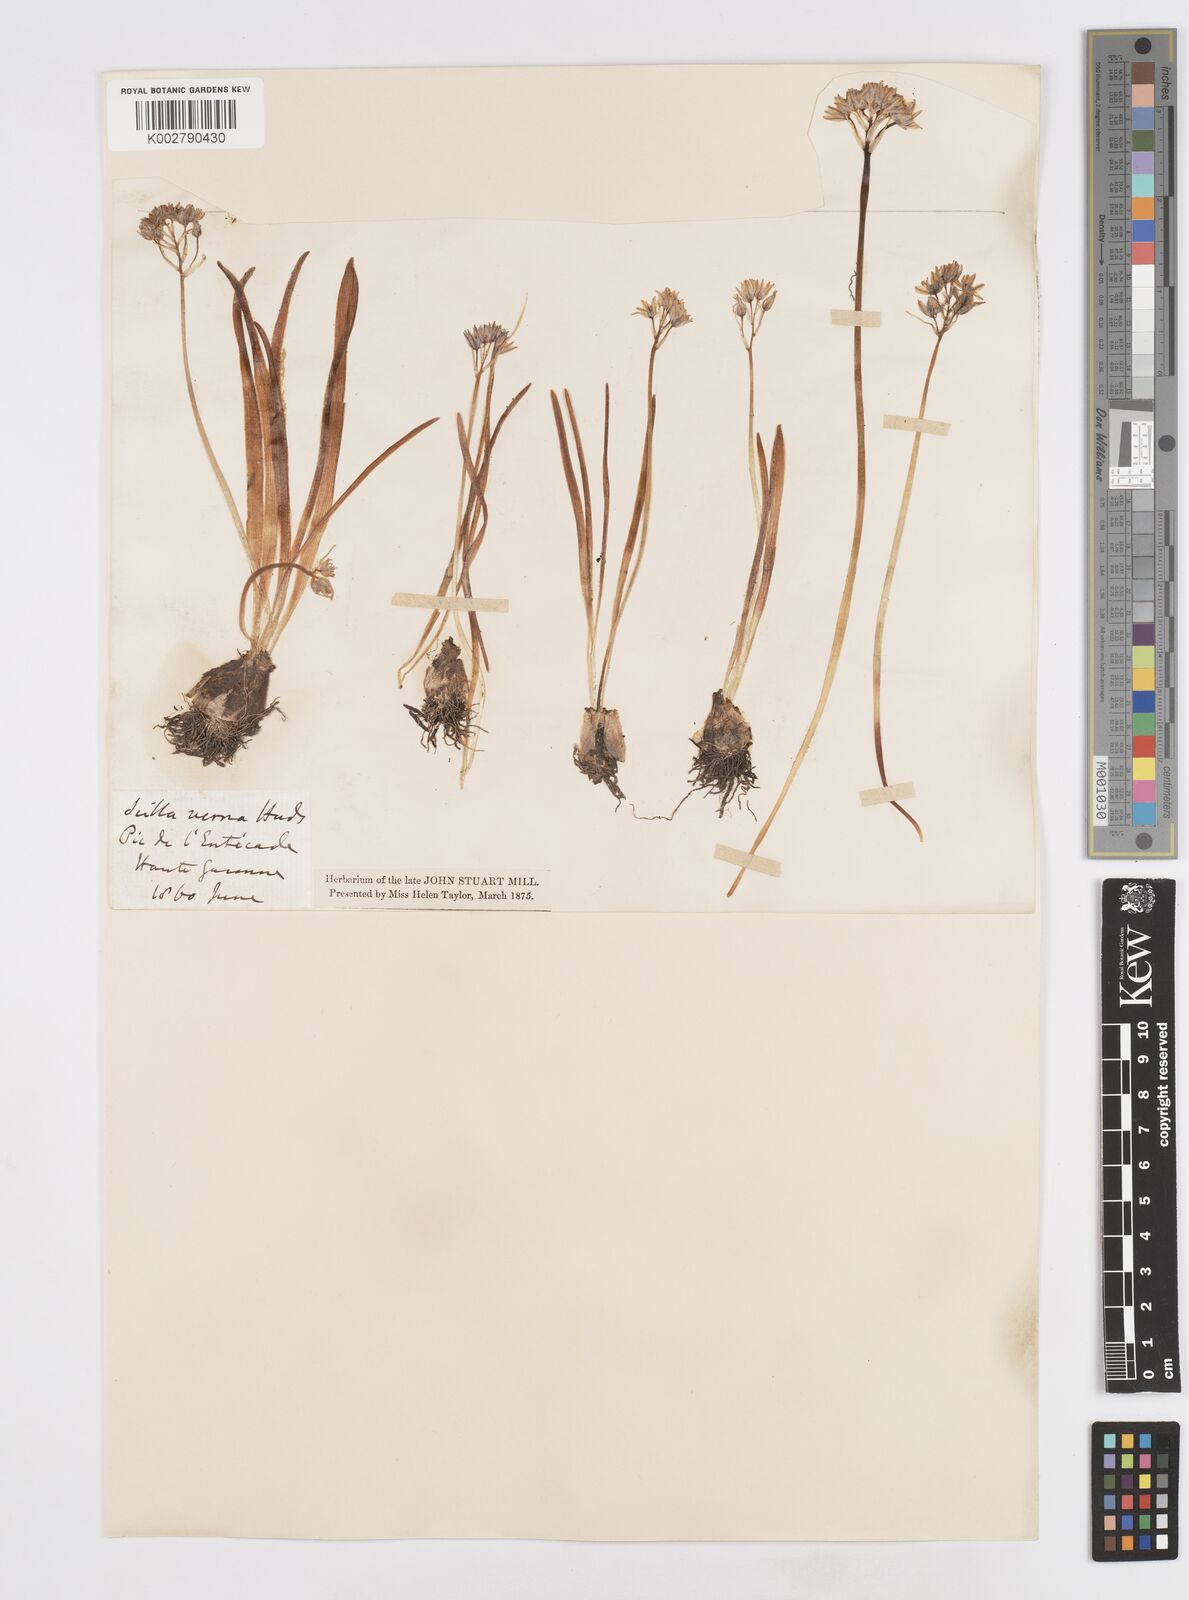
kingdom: Plantae
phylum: Tracheophyta
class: Liliopsida
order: Asparagales
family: Asparagaceae
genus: Scilla
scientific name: Scilla verna
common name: Spring squill
